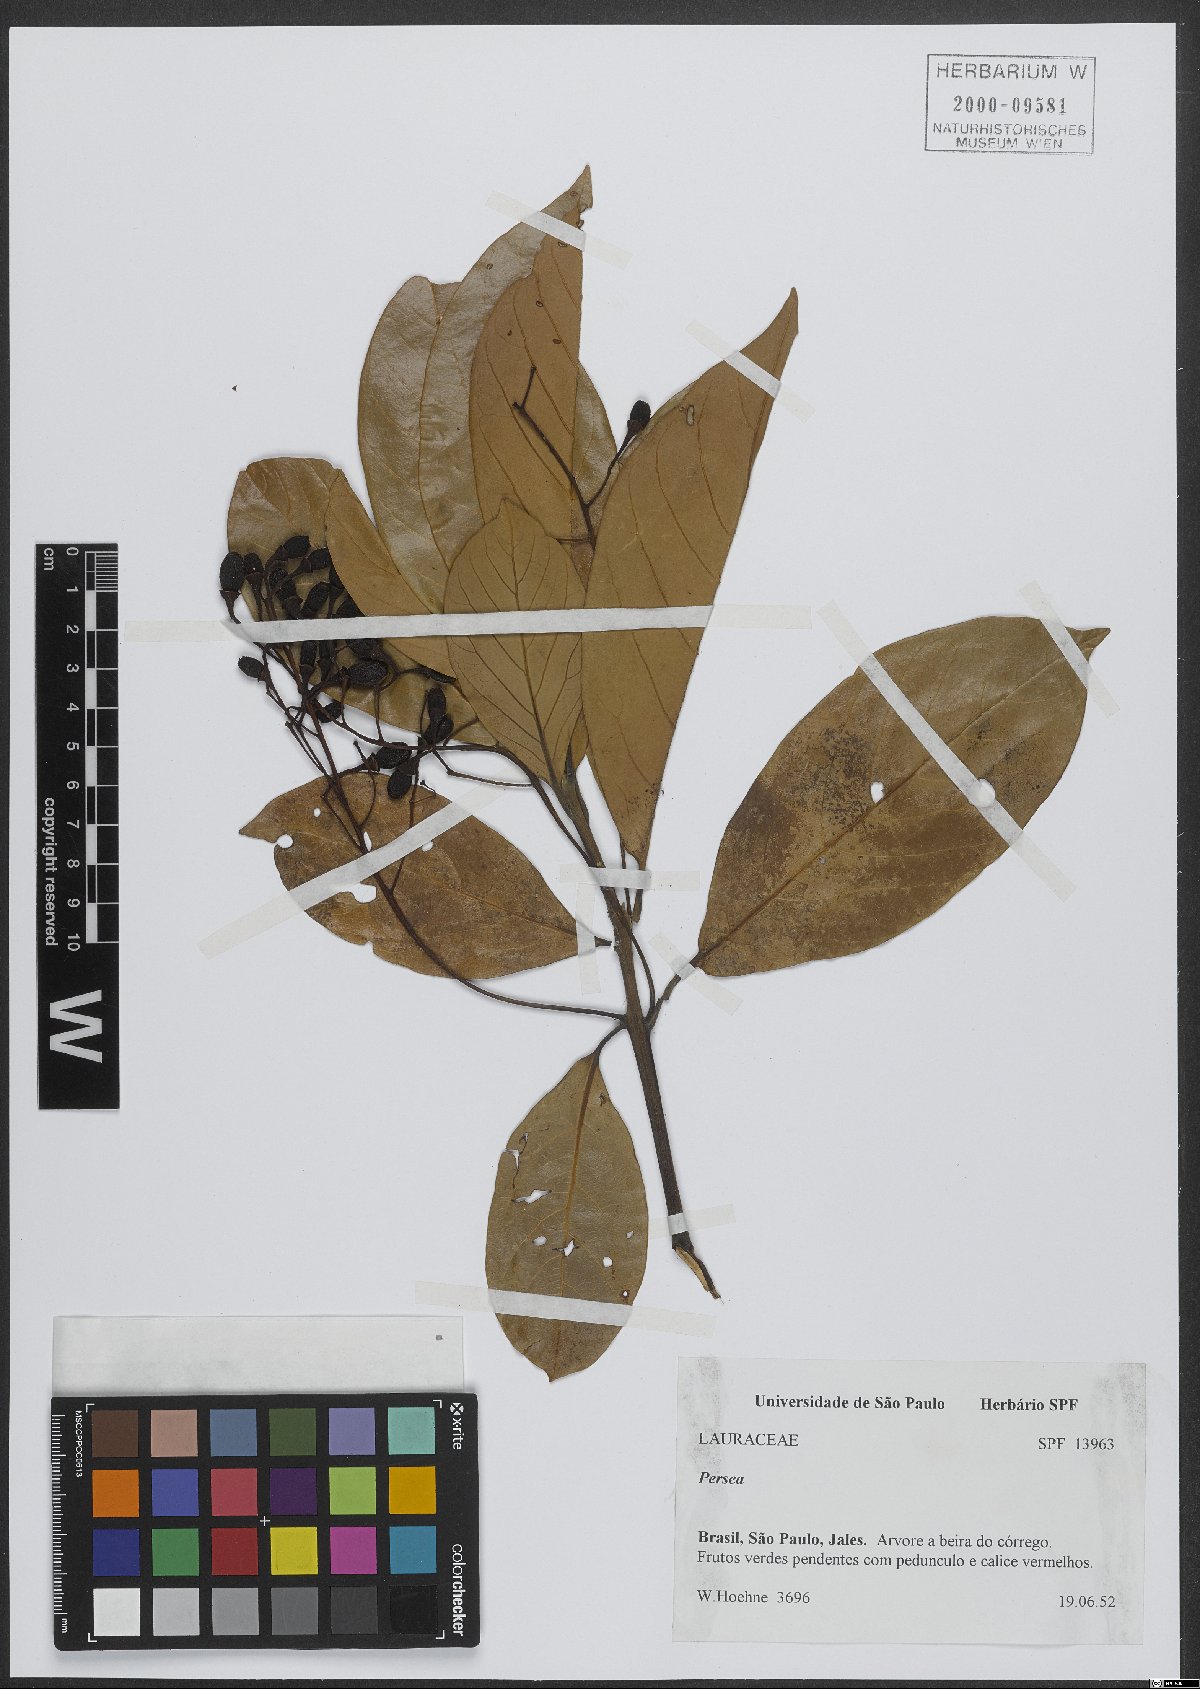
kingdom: Plantae
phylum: Tracheophyta
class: Magnoliopsida
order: Laurales
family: Lauraceae
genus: Persea
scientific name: Persea
